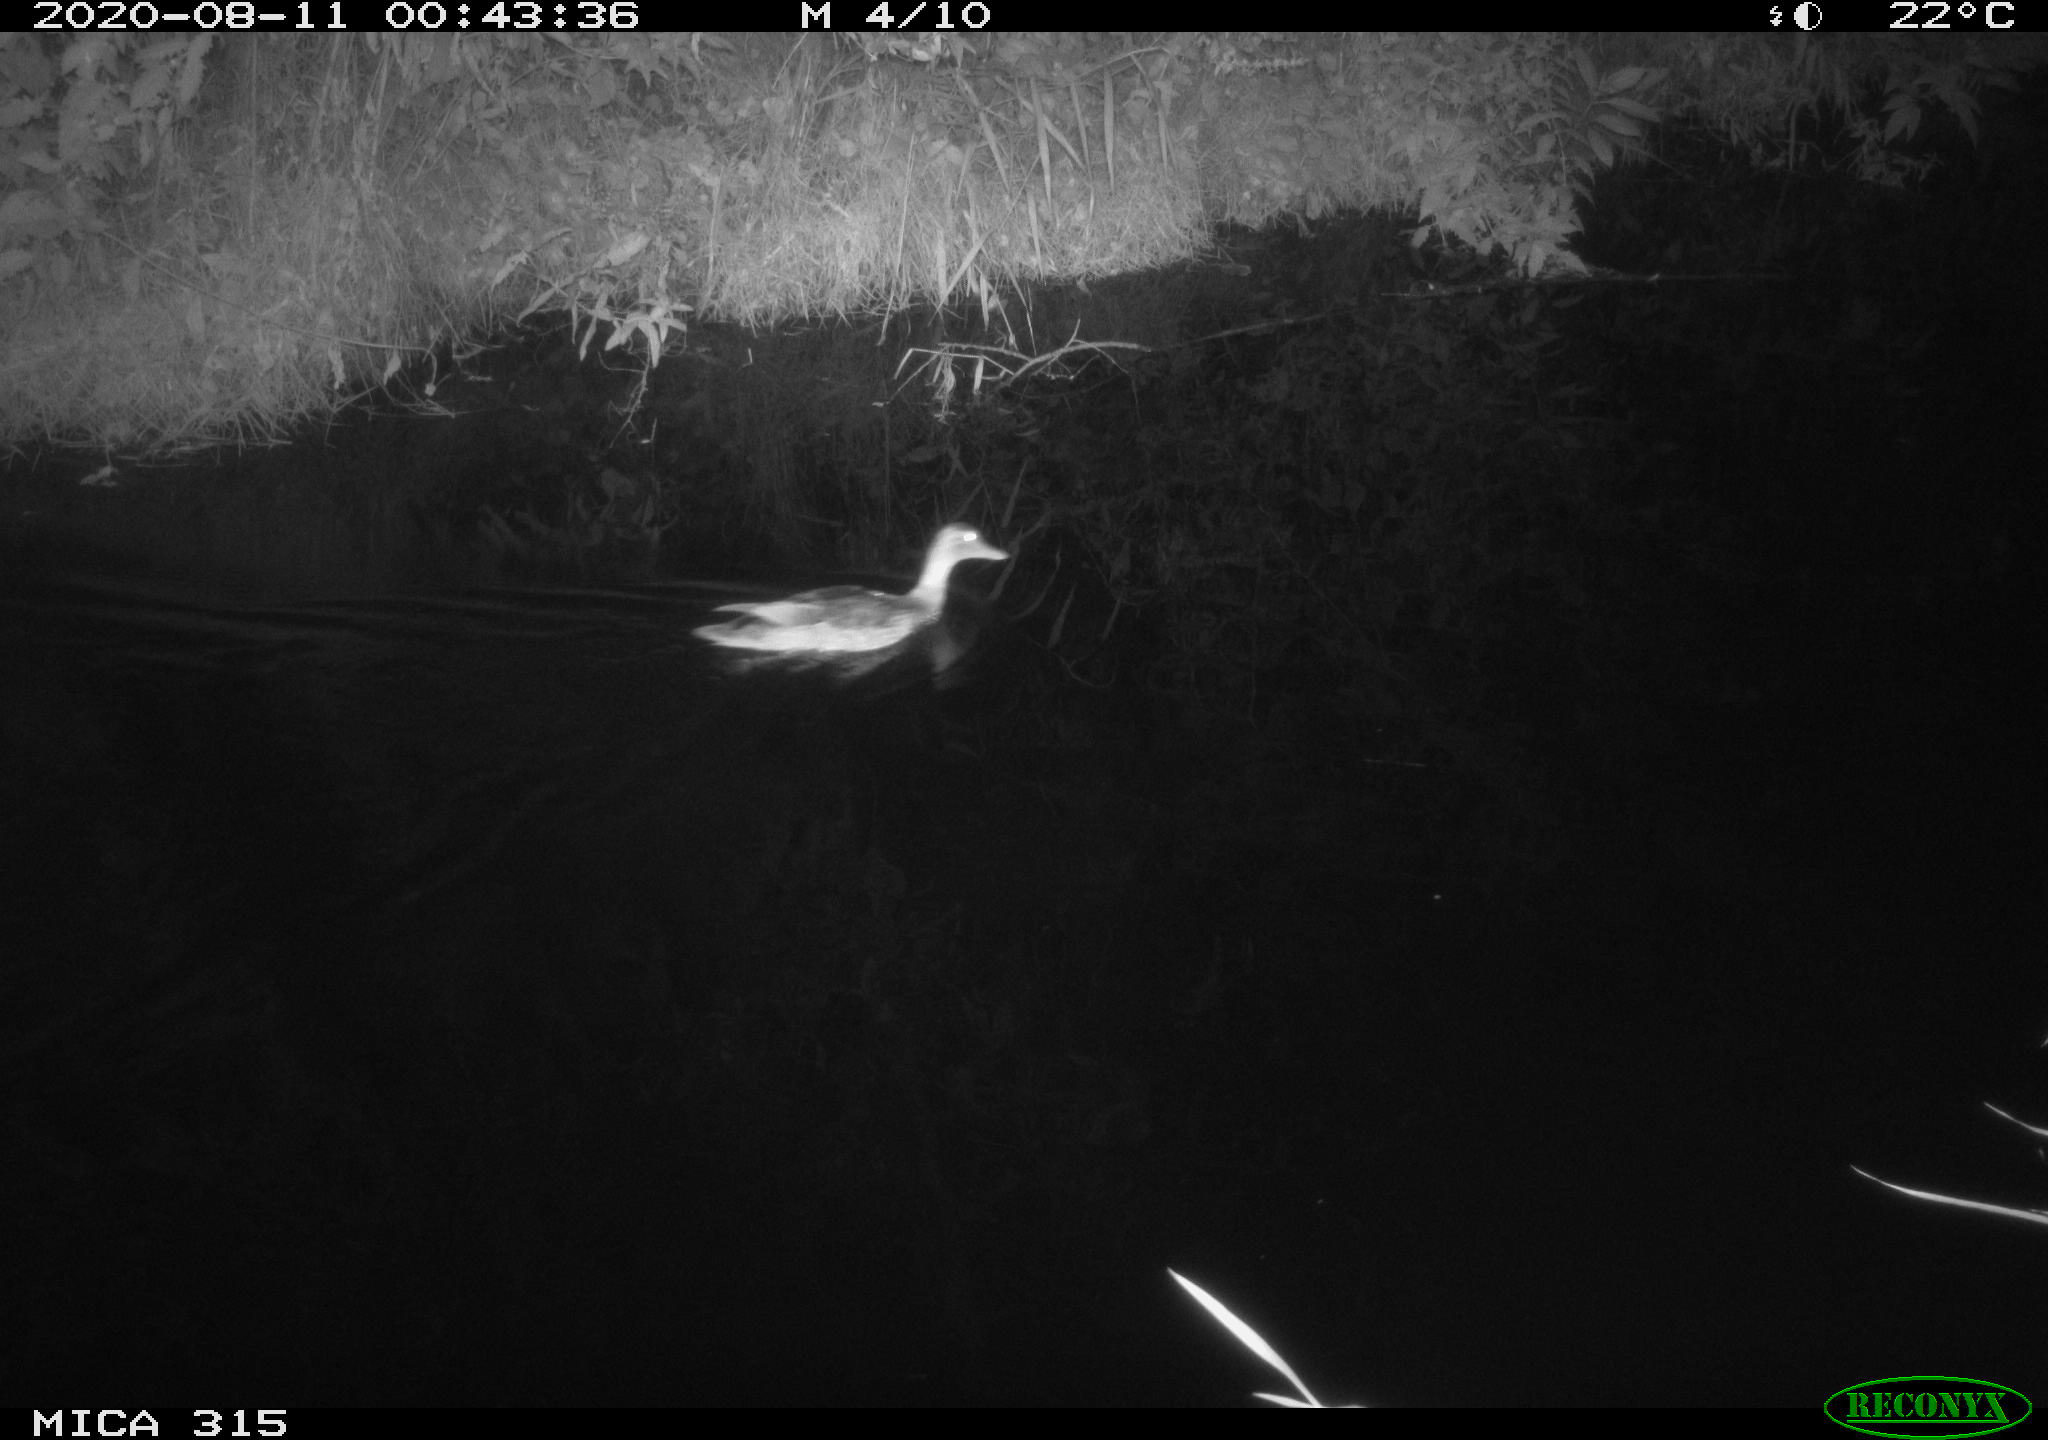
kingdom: Animalia
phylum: Chordata
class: Aves
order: Anseriformes
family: Anatidae
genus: Anas
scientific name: Anas platyrhynchos
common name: Mallard
